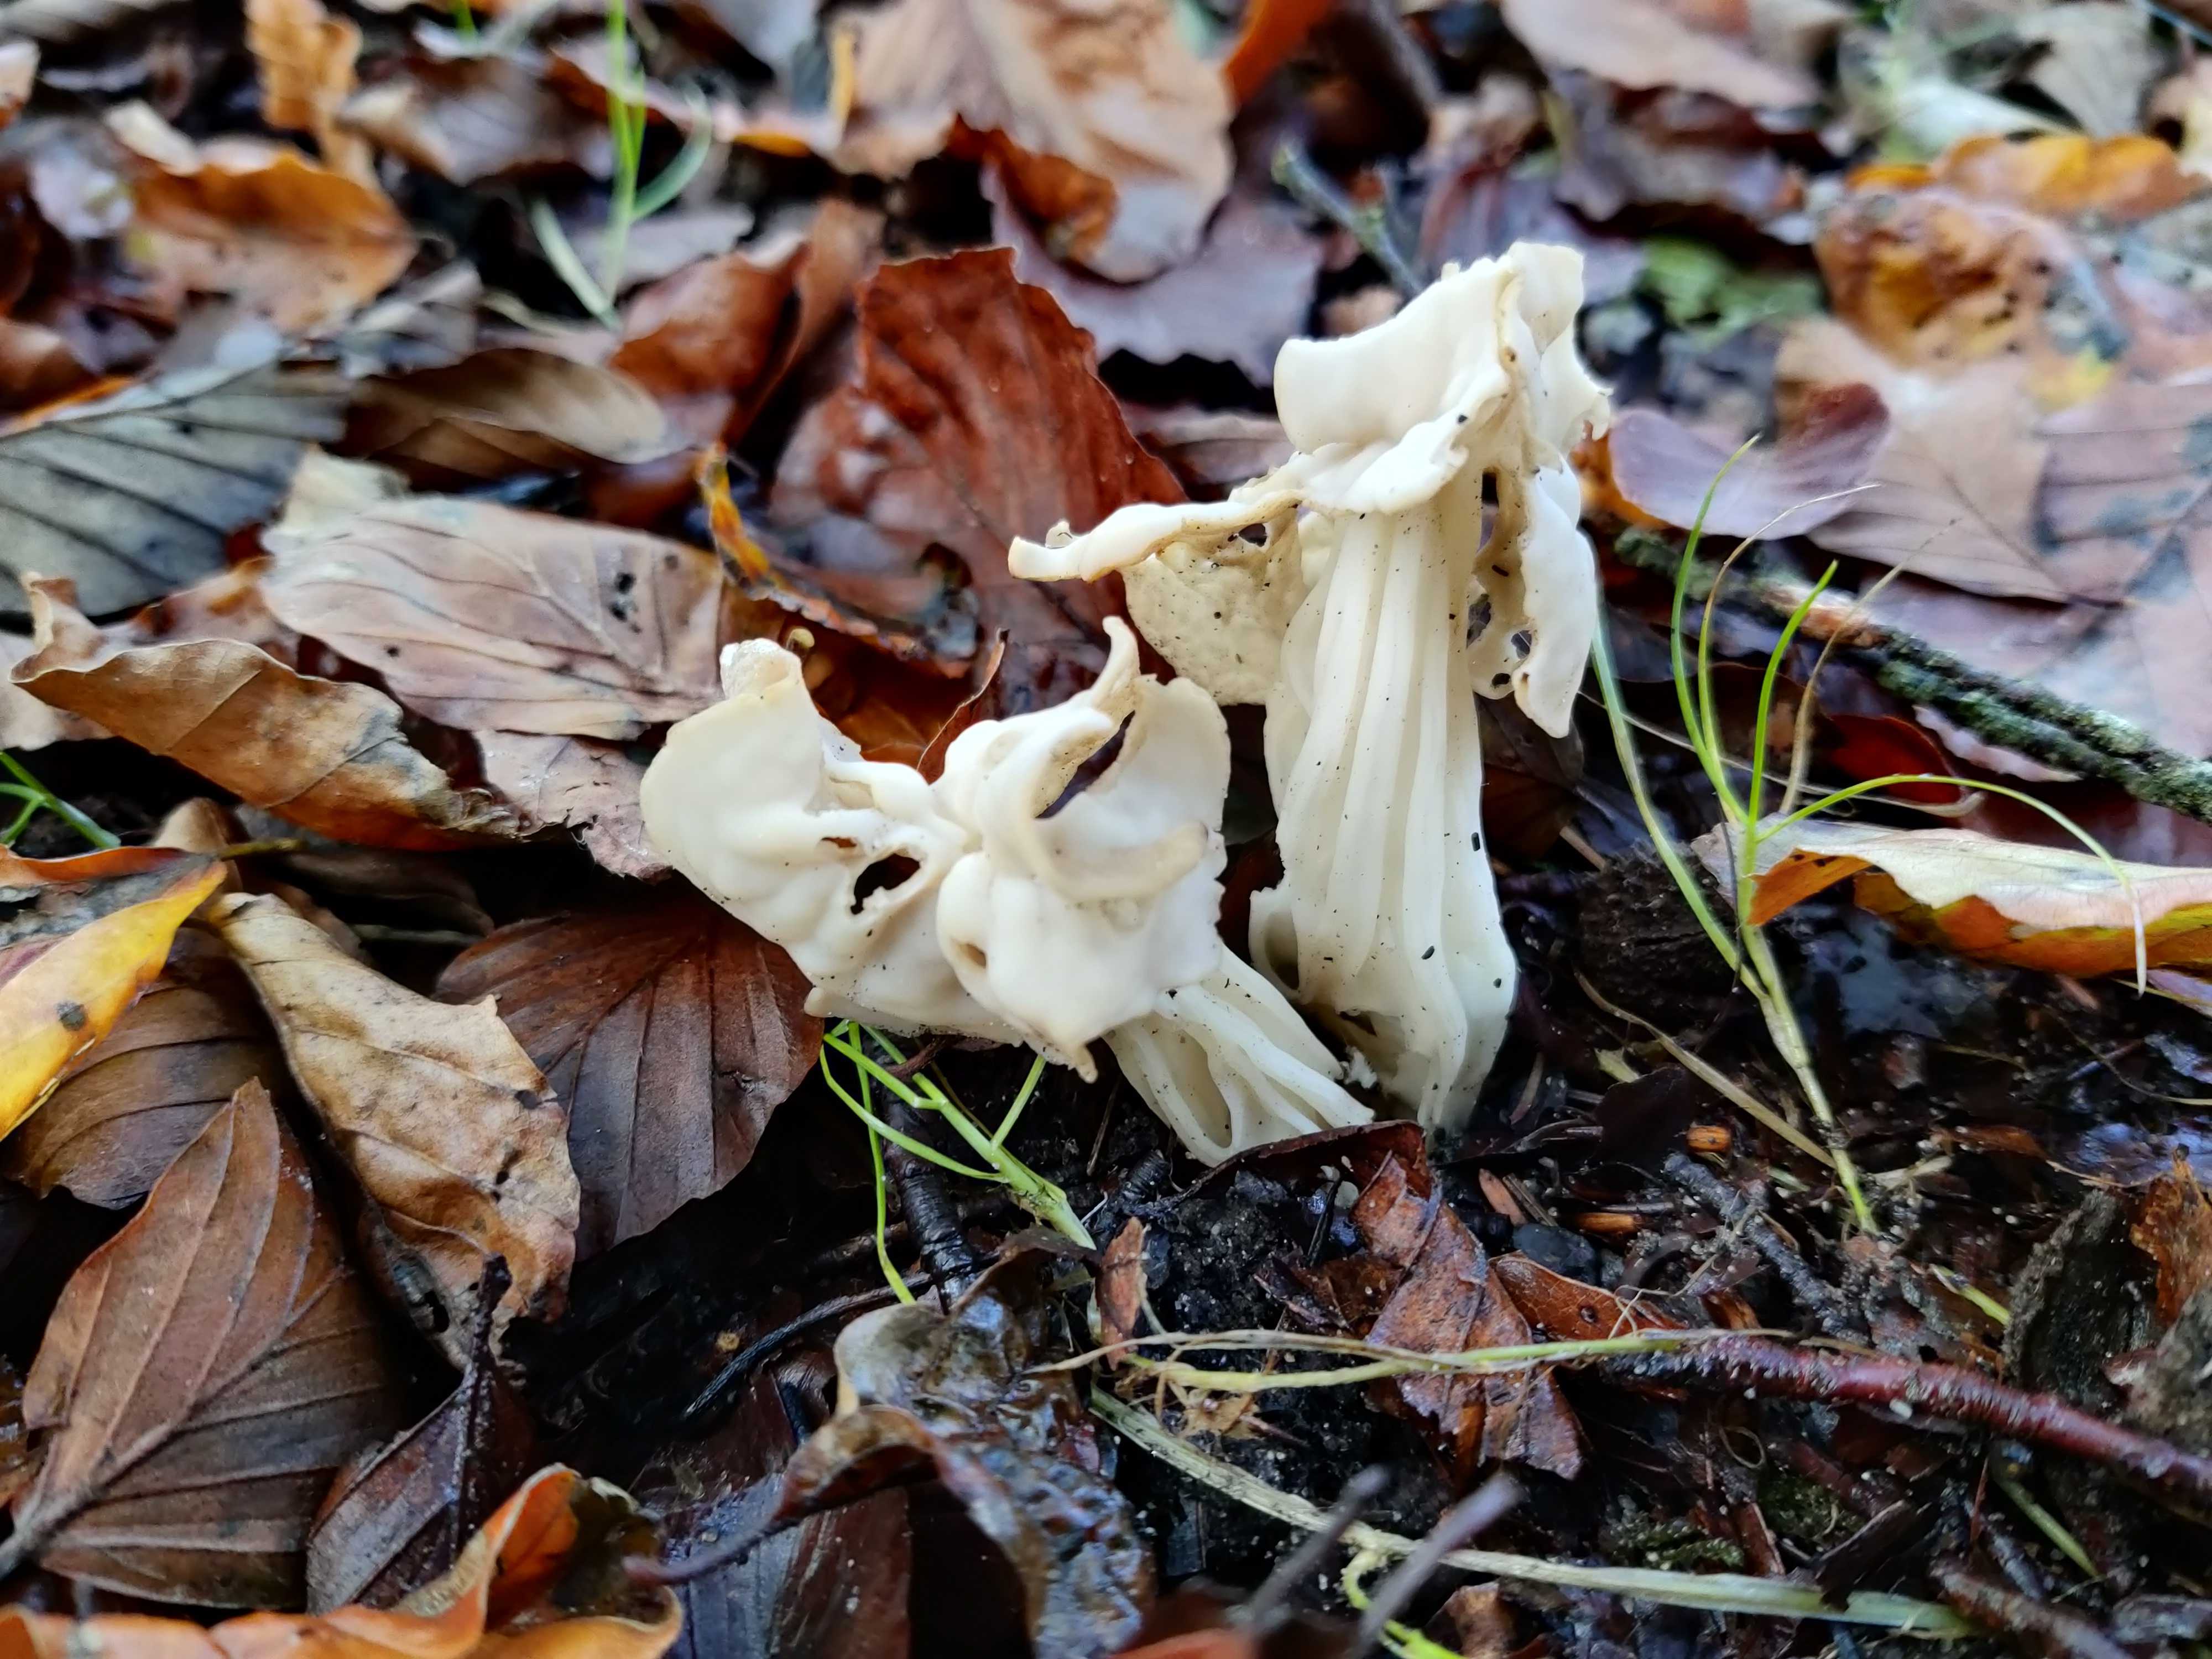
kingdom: Fungi
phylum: Ascomycota
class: Pezizomycetes
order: Pezizales
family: Helvellaceae
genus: Helvella
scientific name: Helvella crispa
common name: kruset foldhat
